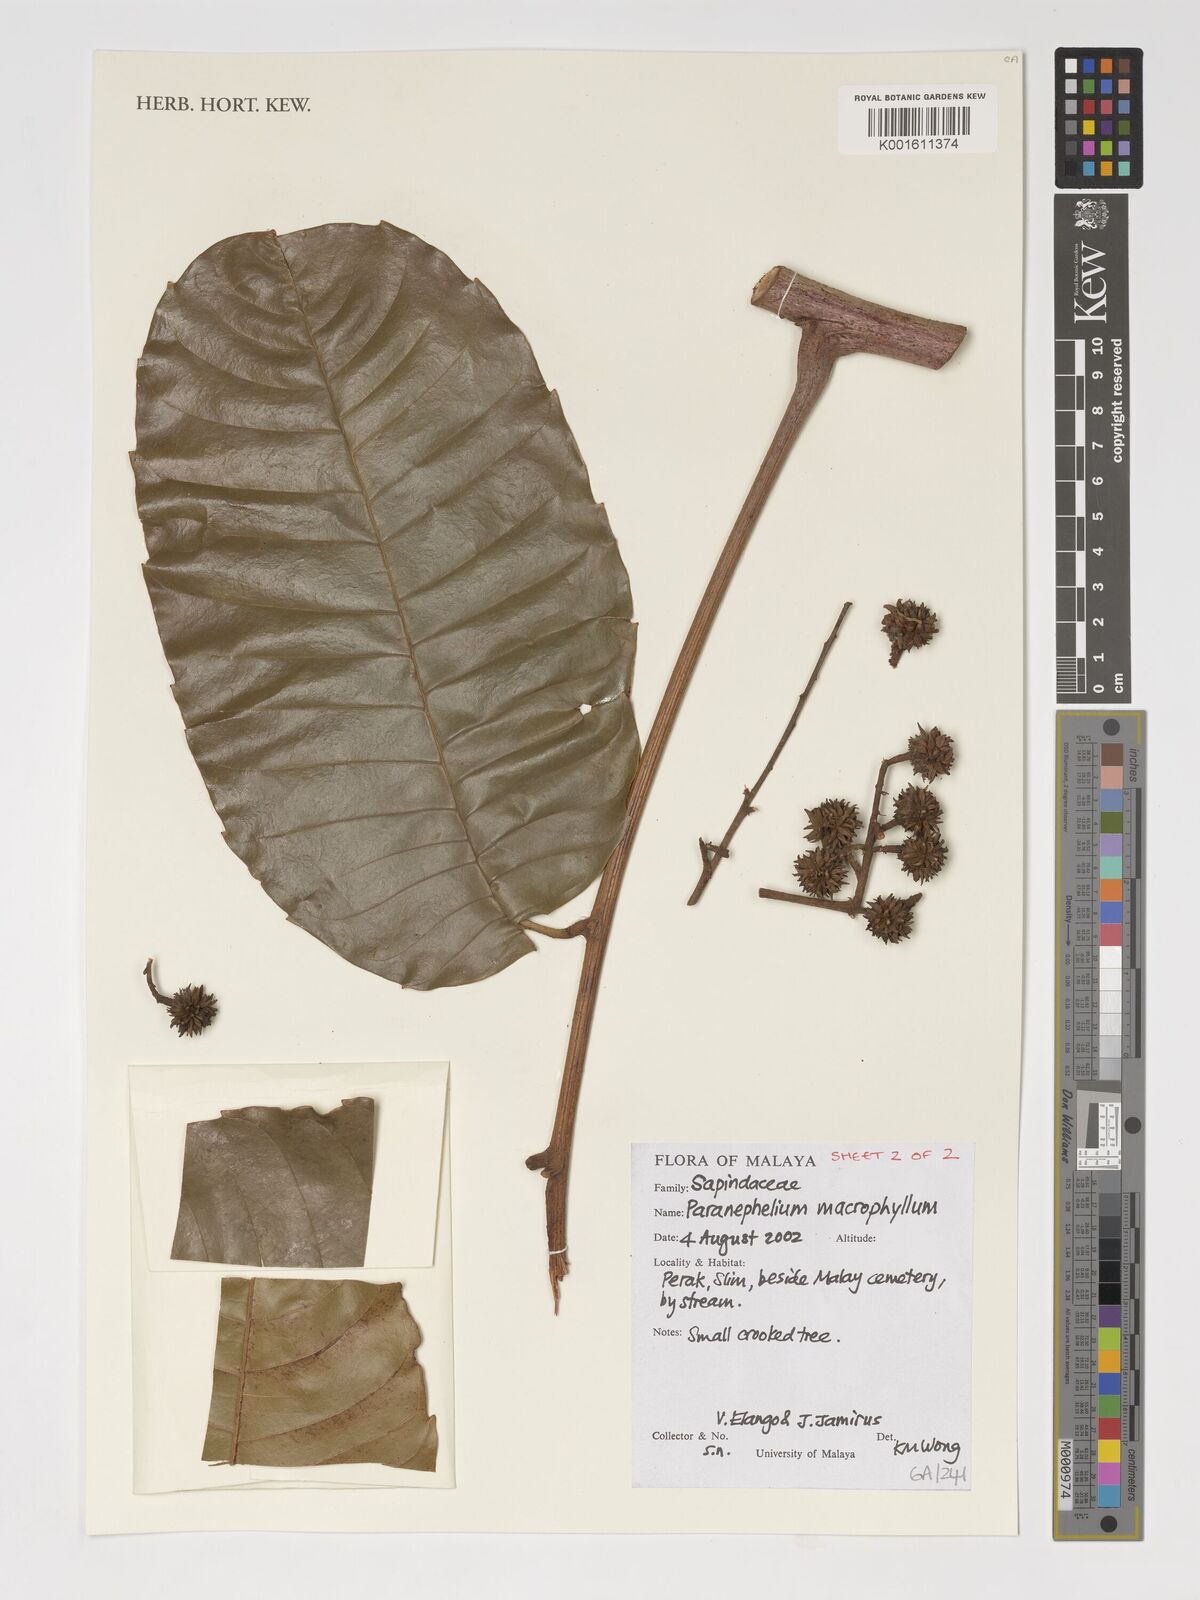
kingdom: Plantae
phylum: Tracheophyta
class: Magnoliopsida
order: Sapindales
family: Sapindaceae
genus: Paranephelium
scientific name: Paranephelium macrophyllum
